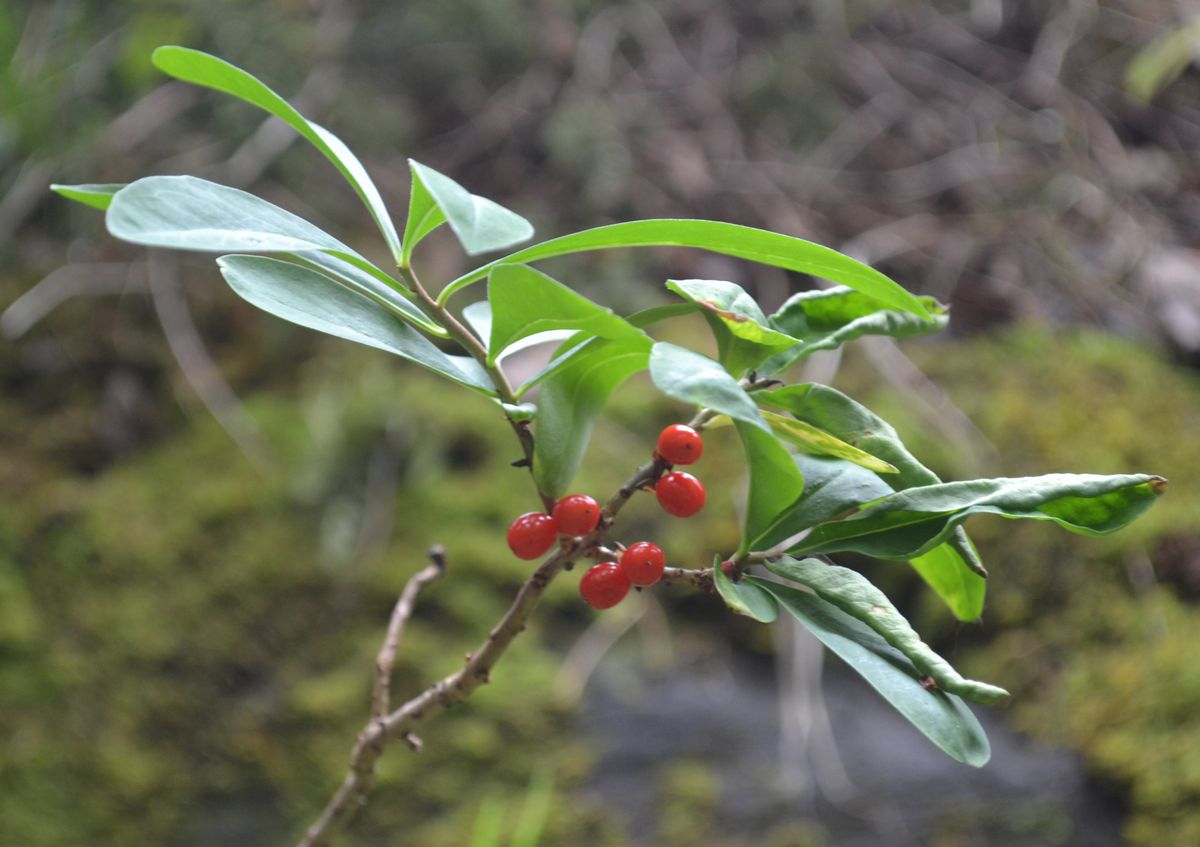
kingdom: Plantae
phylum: Tracheophyta
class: Magnoliopsida
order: Malvales
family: Thymelaeaceae
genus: Daphne
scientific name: Daphne mezereum
